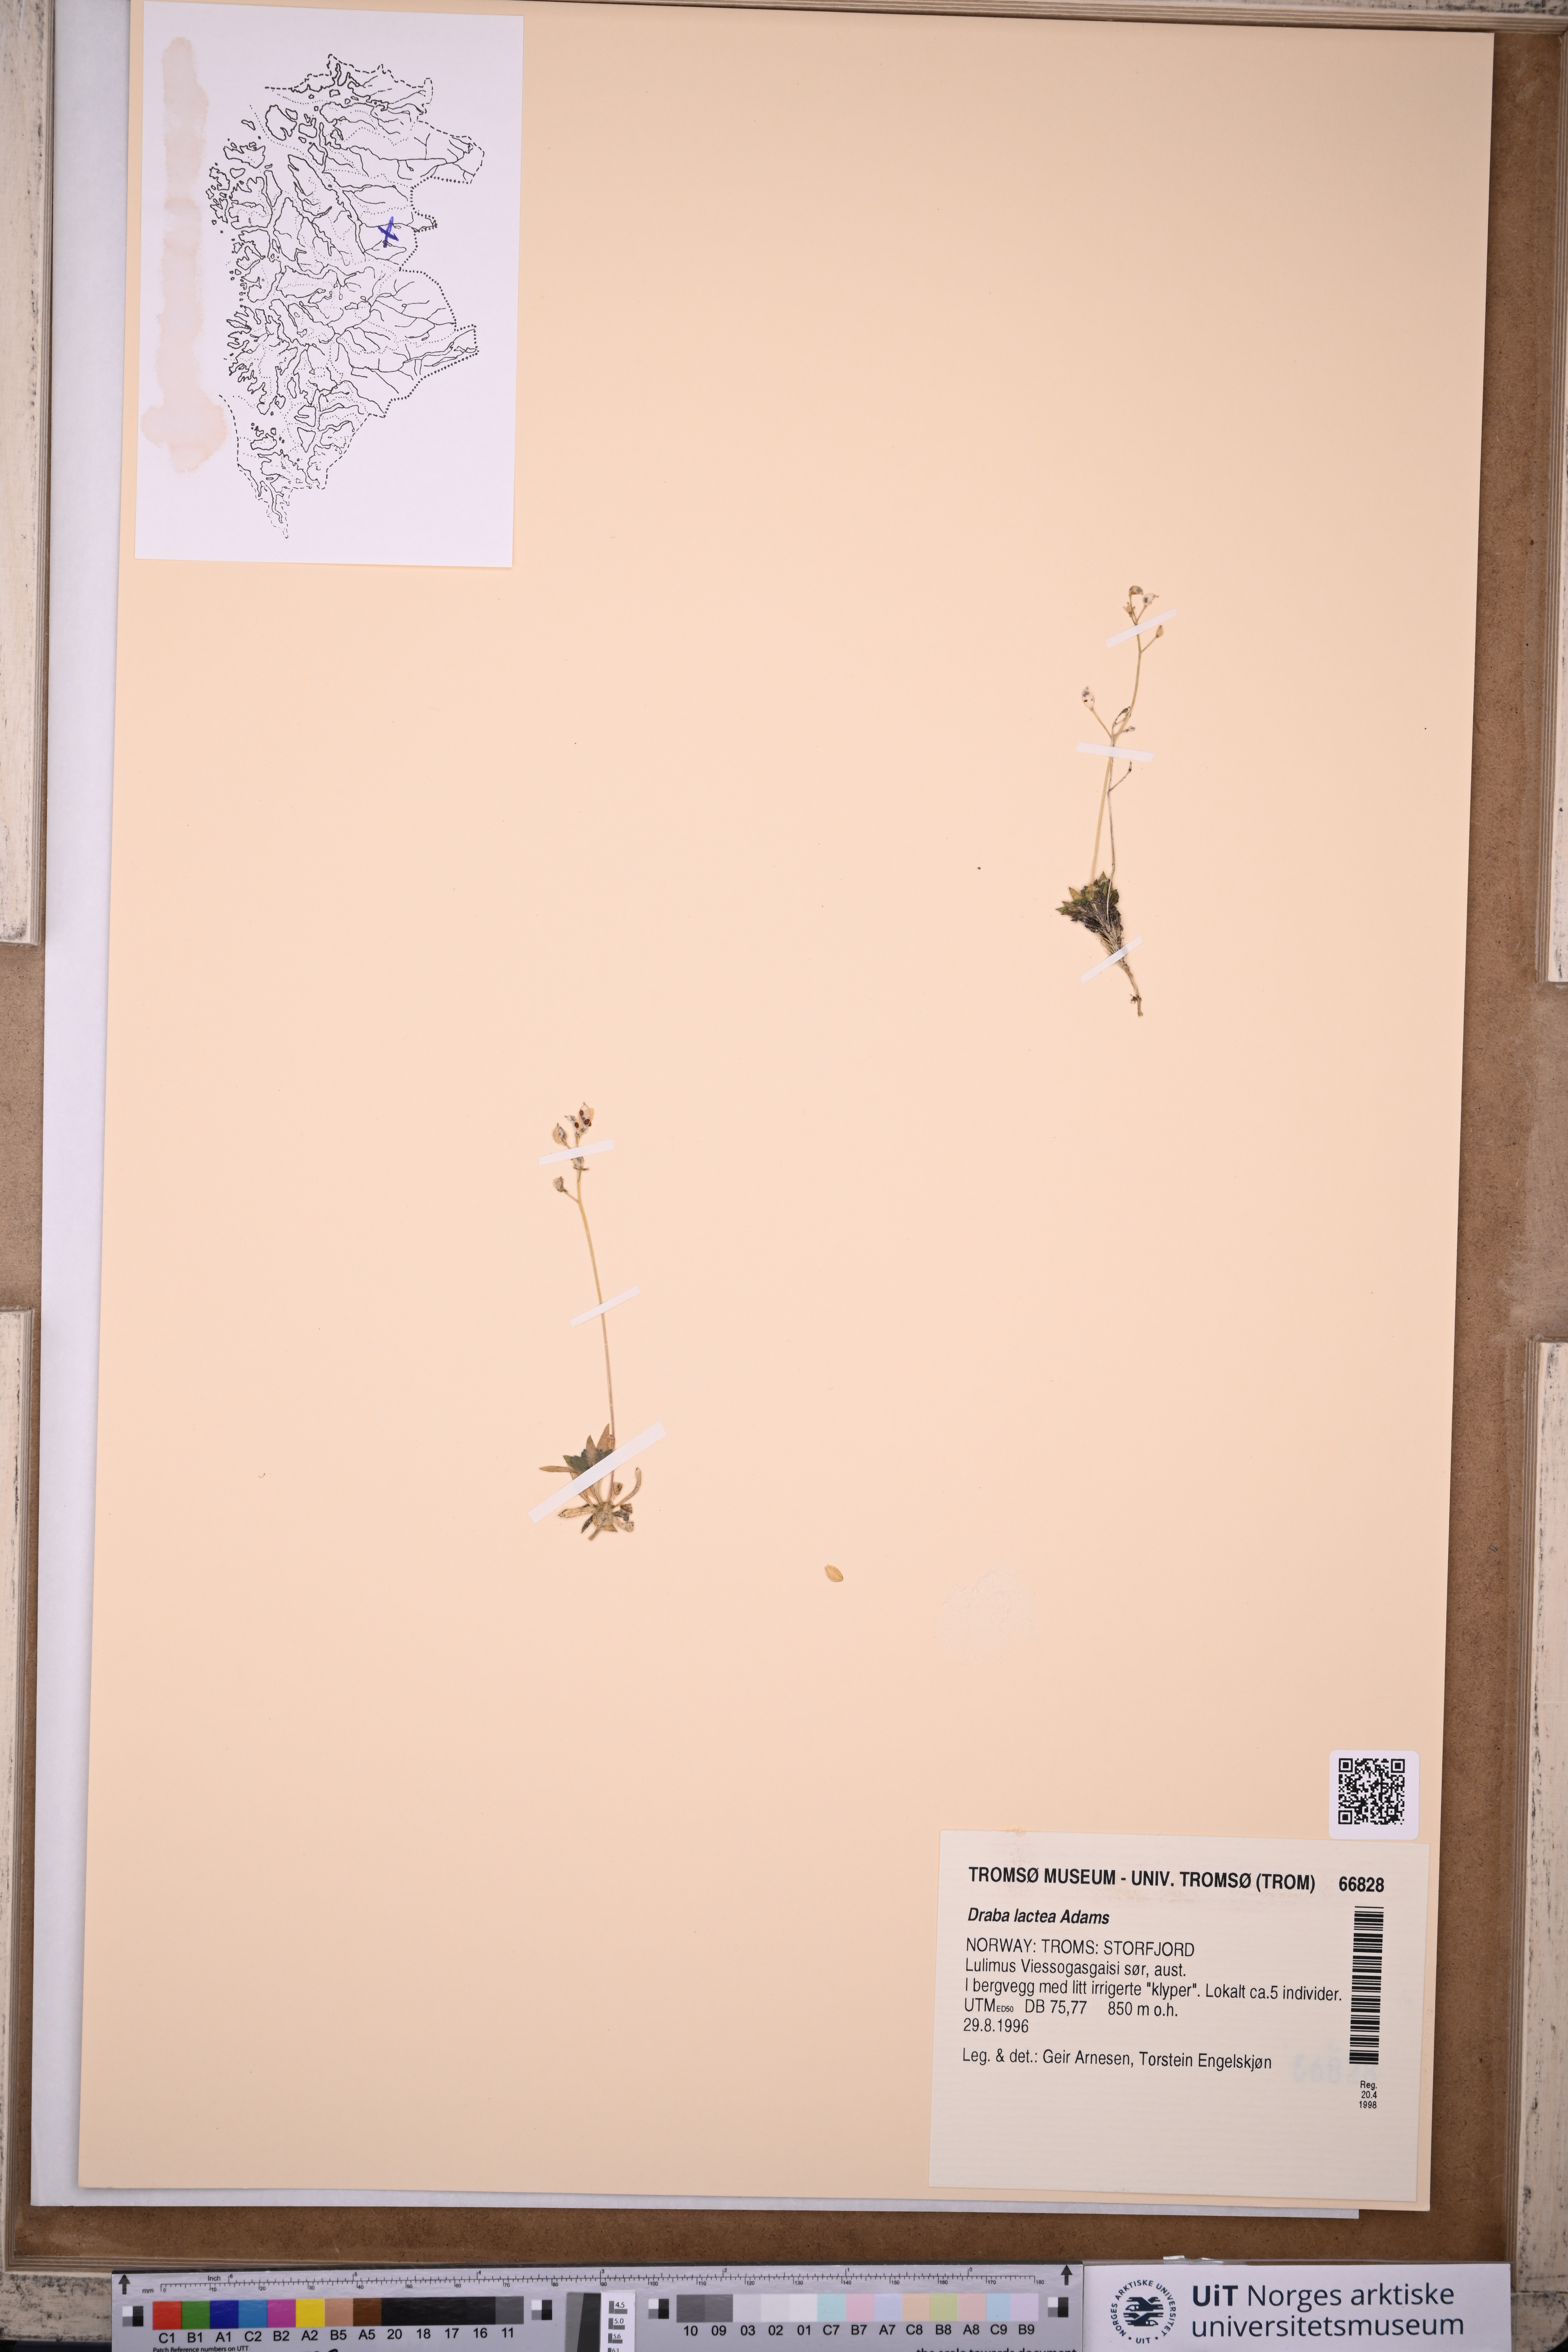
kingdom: Plantae
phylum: Tracheophyta
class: Magnoliopsida
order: Brassicales
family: Brassicaceae
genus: Draba
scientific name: Draba lactea
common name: Milky draba
